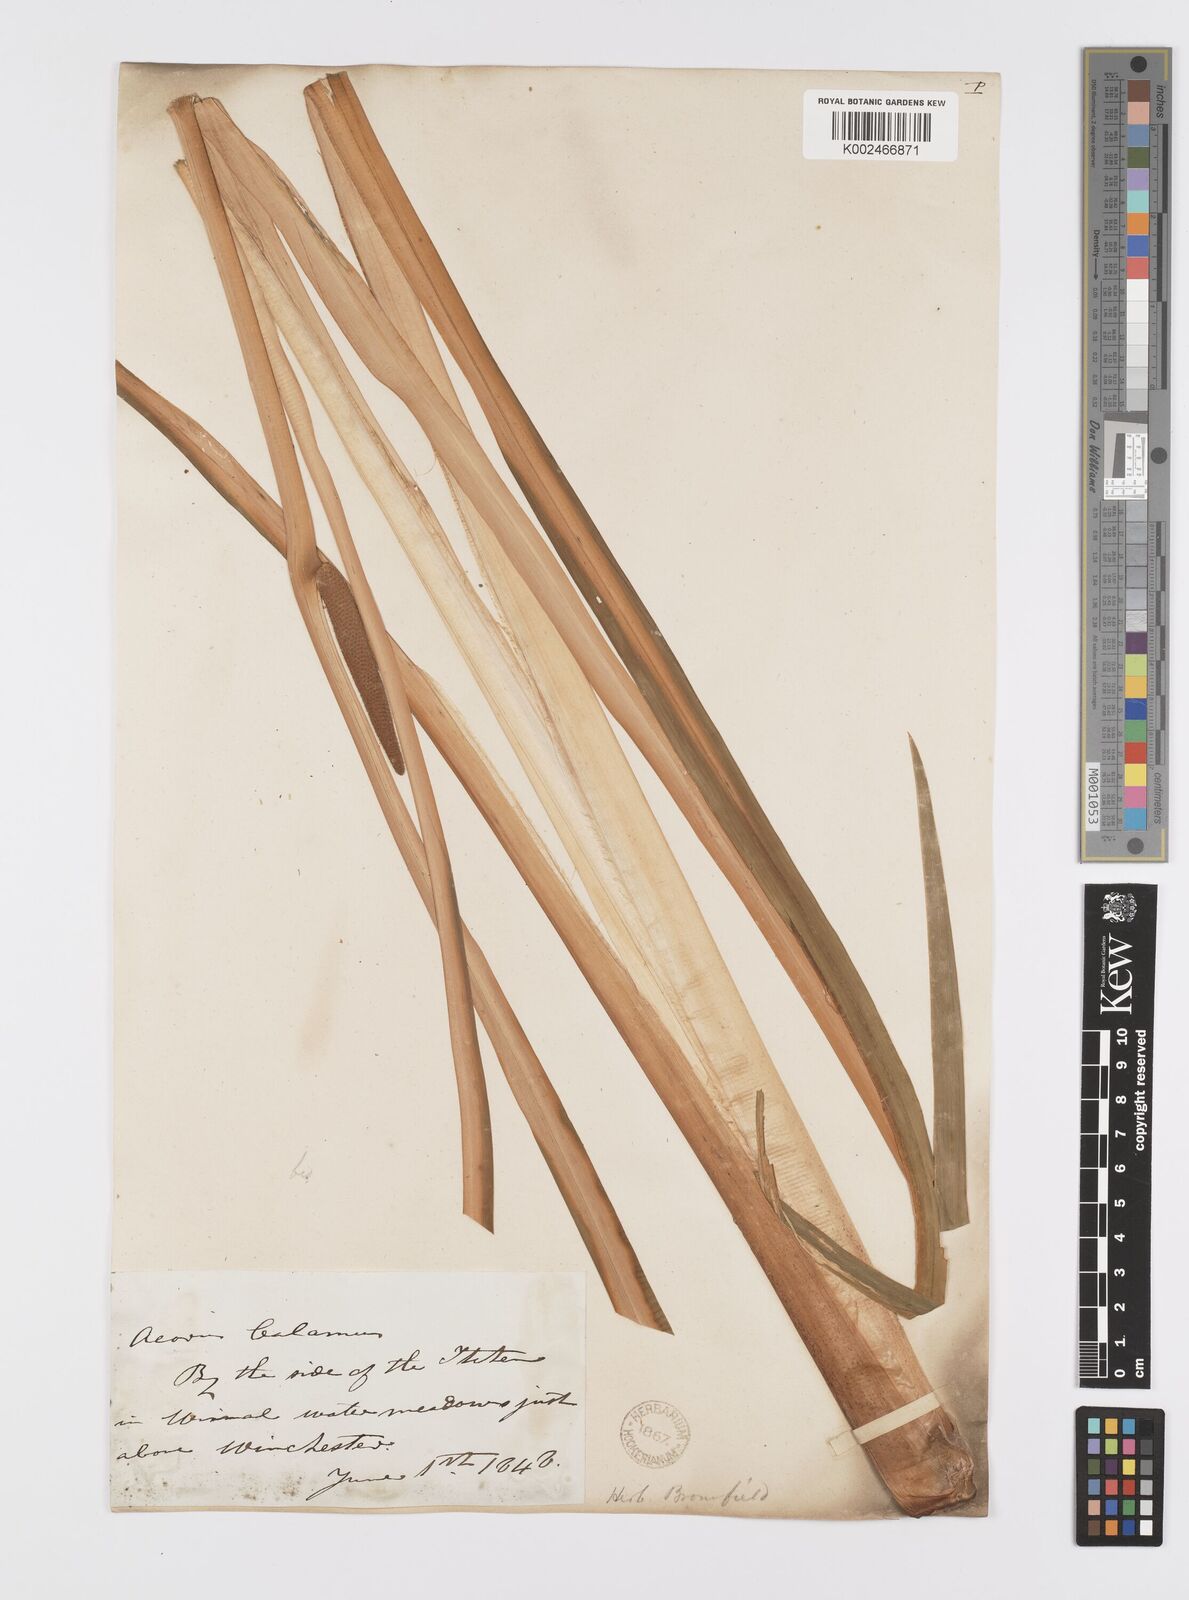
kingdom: Plantae
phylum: Tracheophyta
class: Liliopsida
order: Acorales
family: Acoraceae
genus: Acorus
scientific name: Acorus calamus
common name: Sweet-flag
